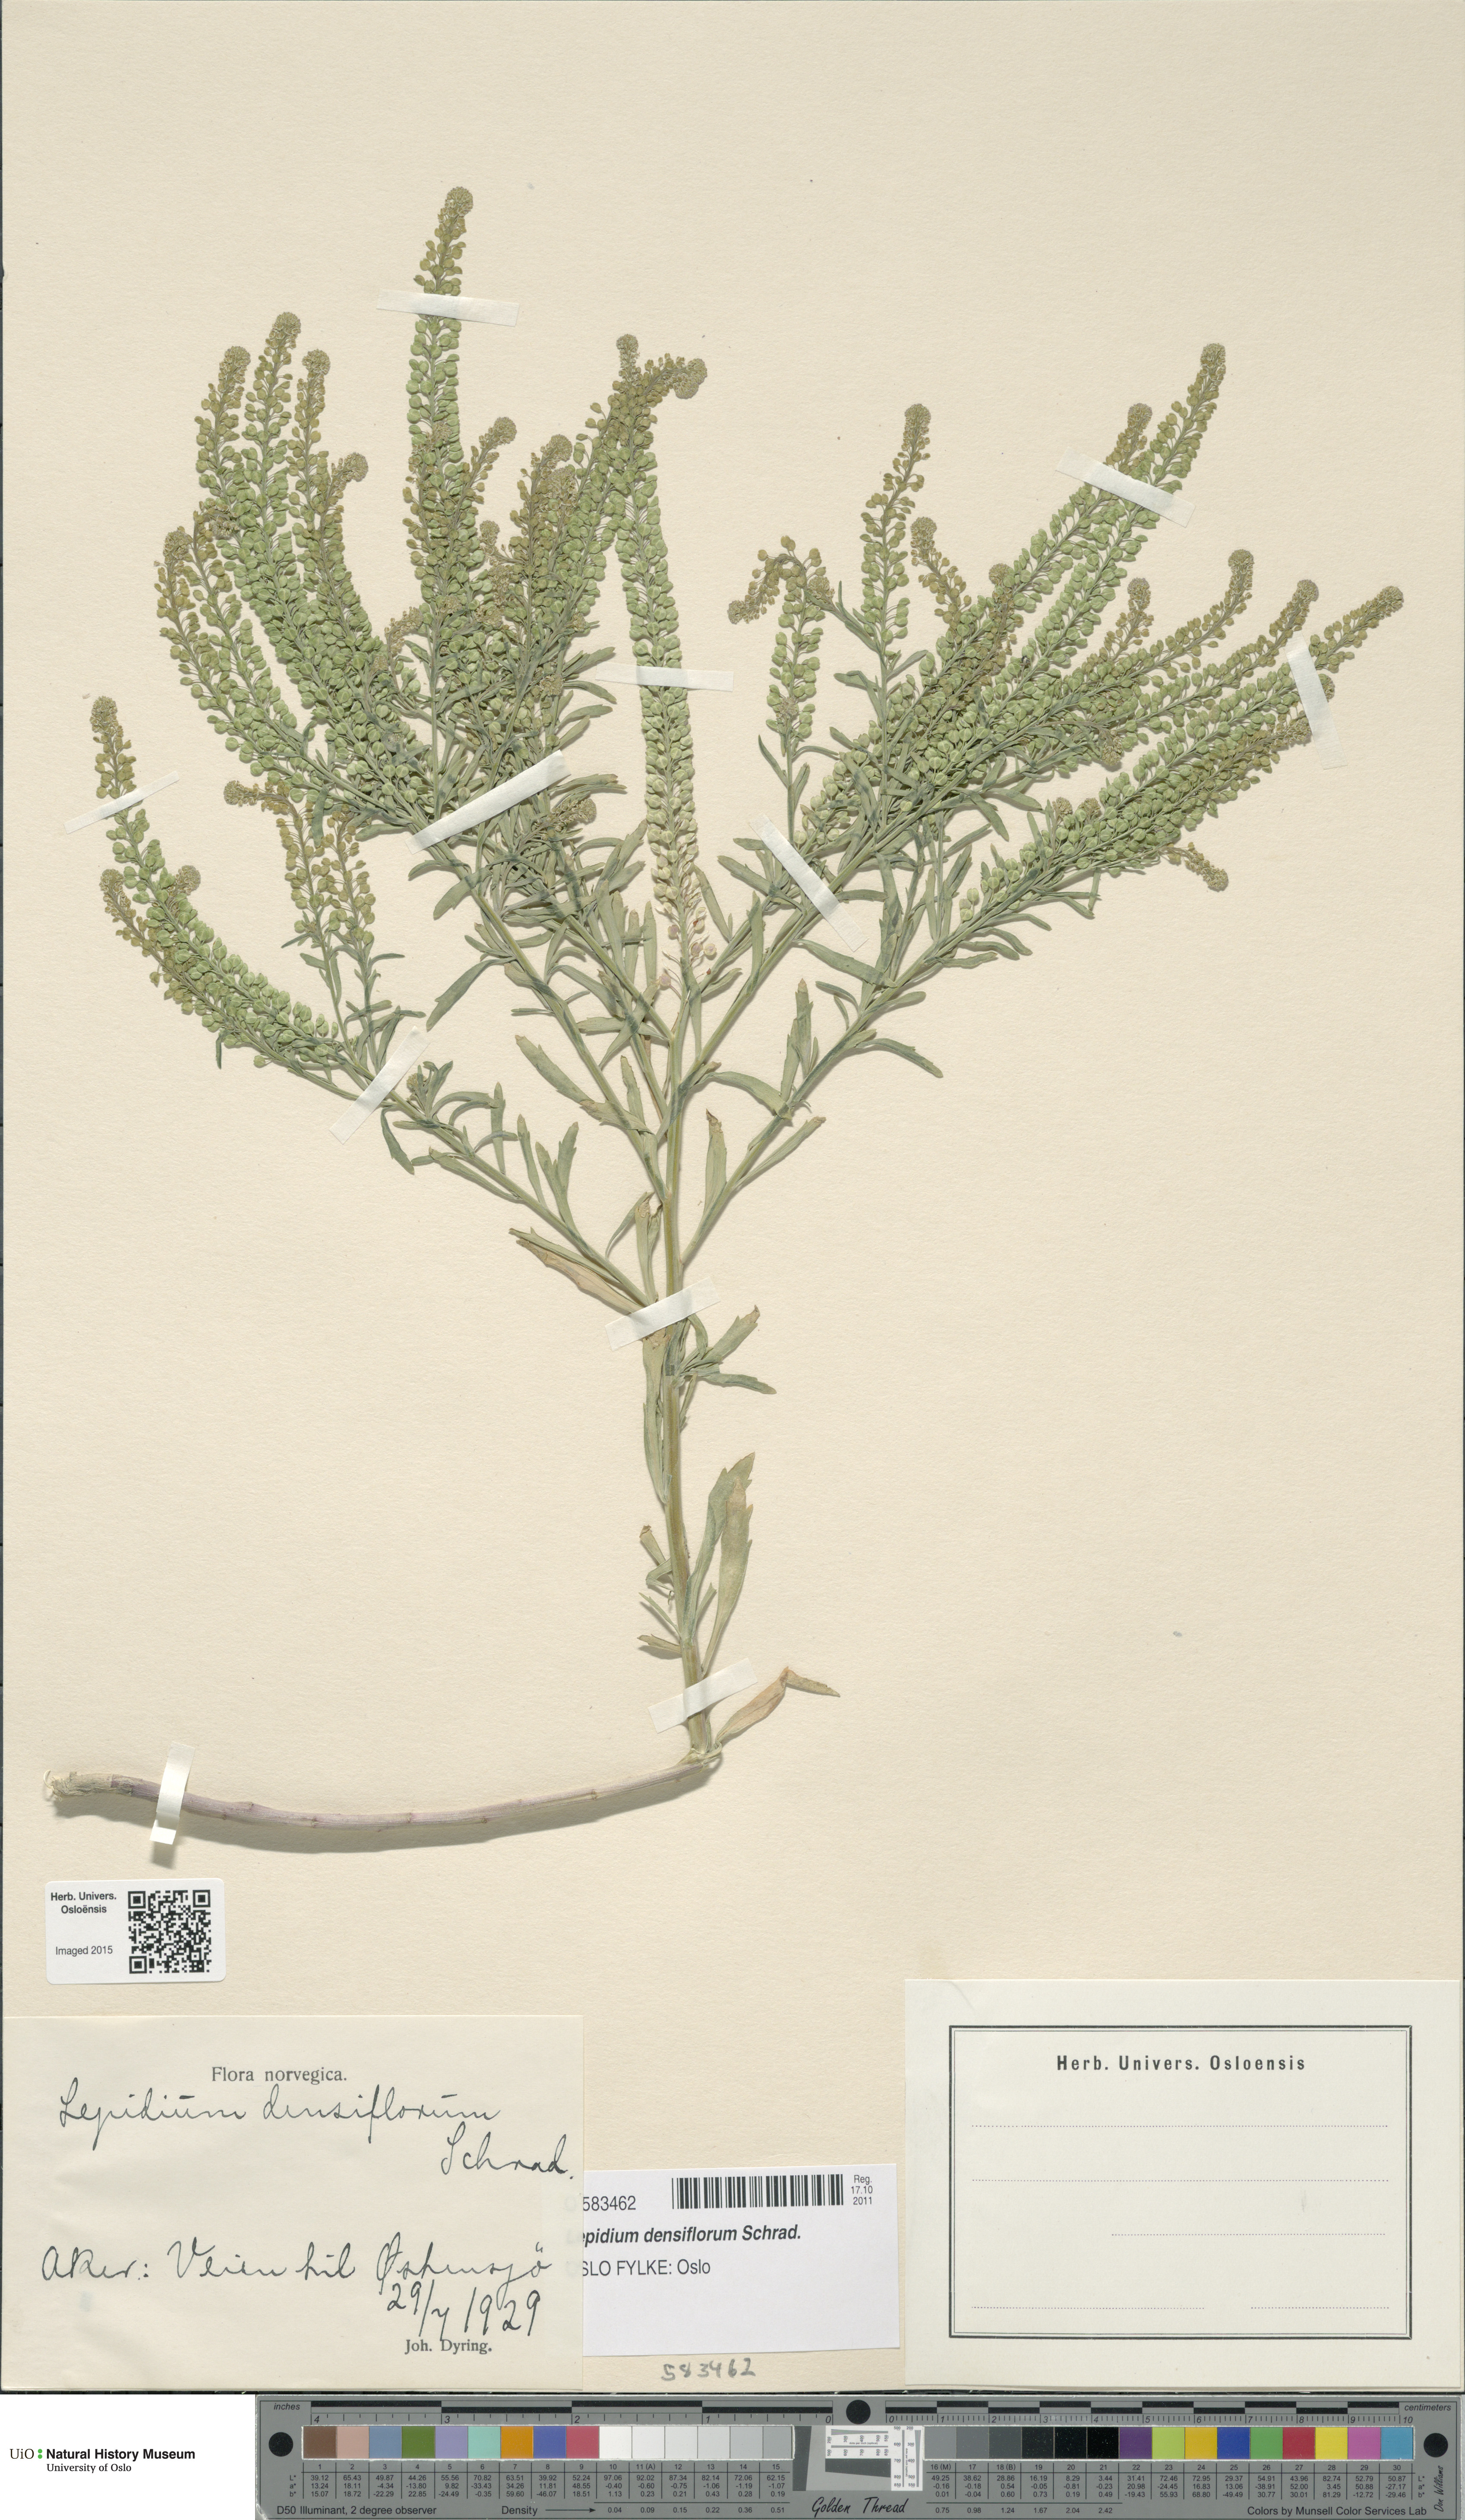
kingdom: Plantae
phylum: Tracheophyta
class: Magnoliopsida
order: Brassicales
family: Brassicaceae
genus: Lepidium
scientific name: Lepidium densiflorum
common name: Miner's pepperwort
